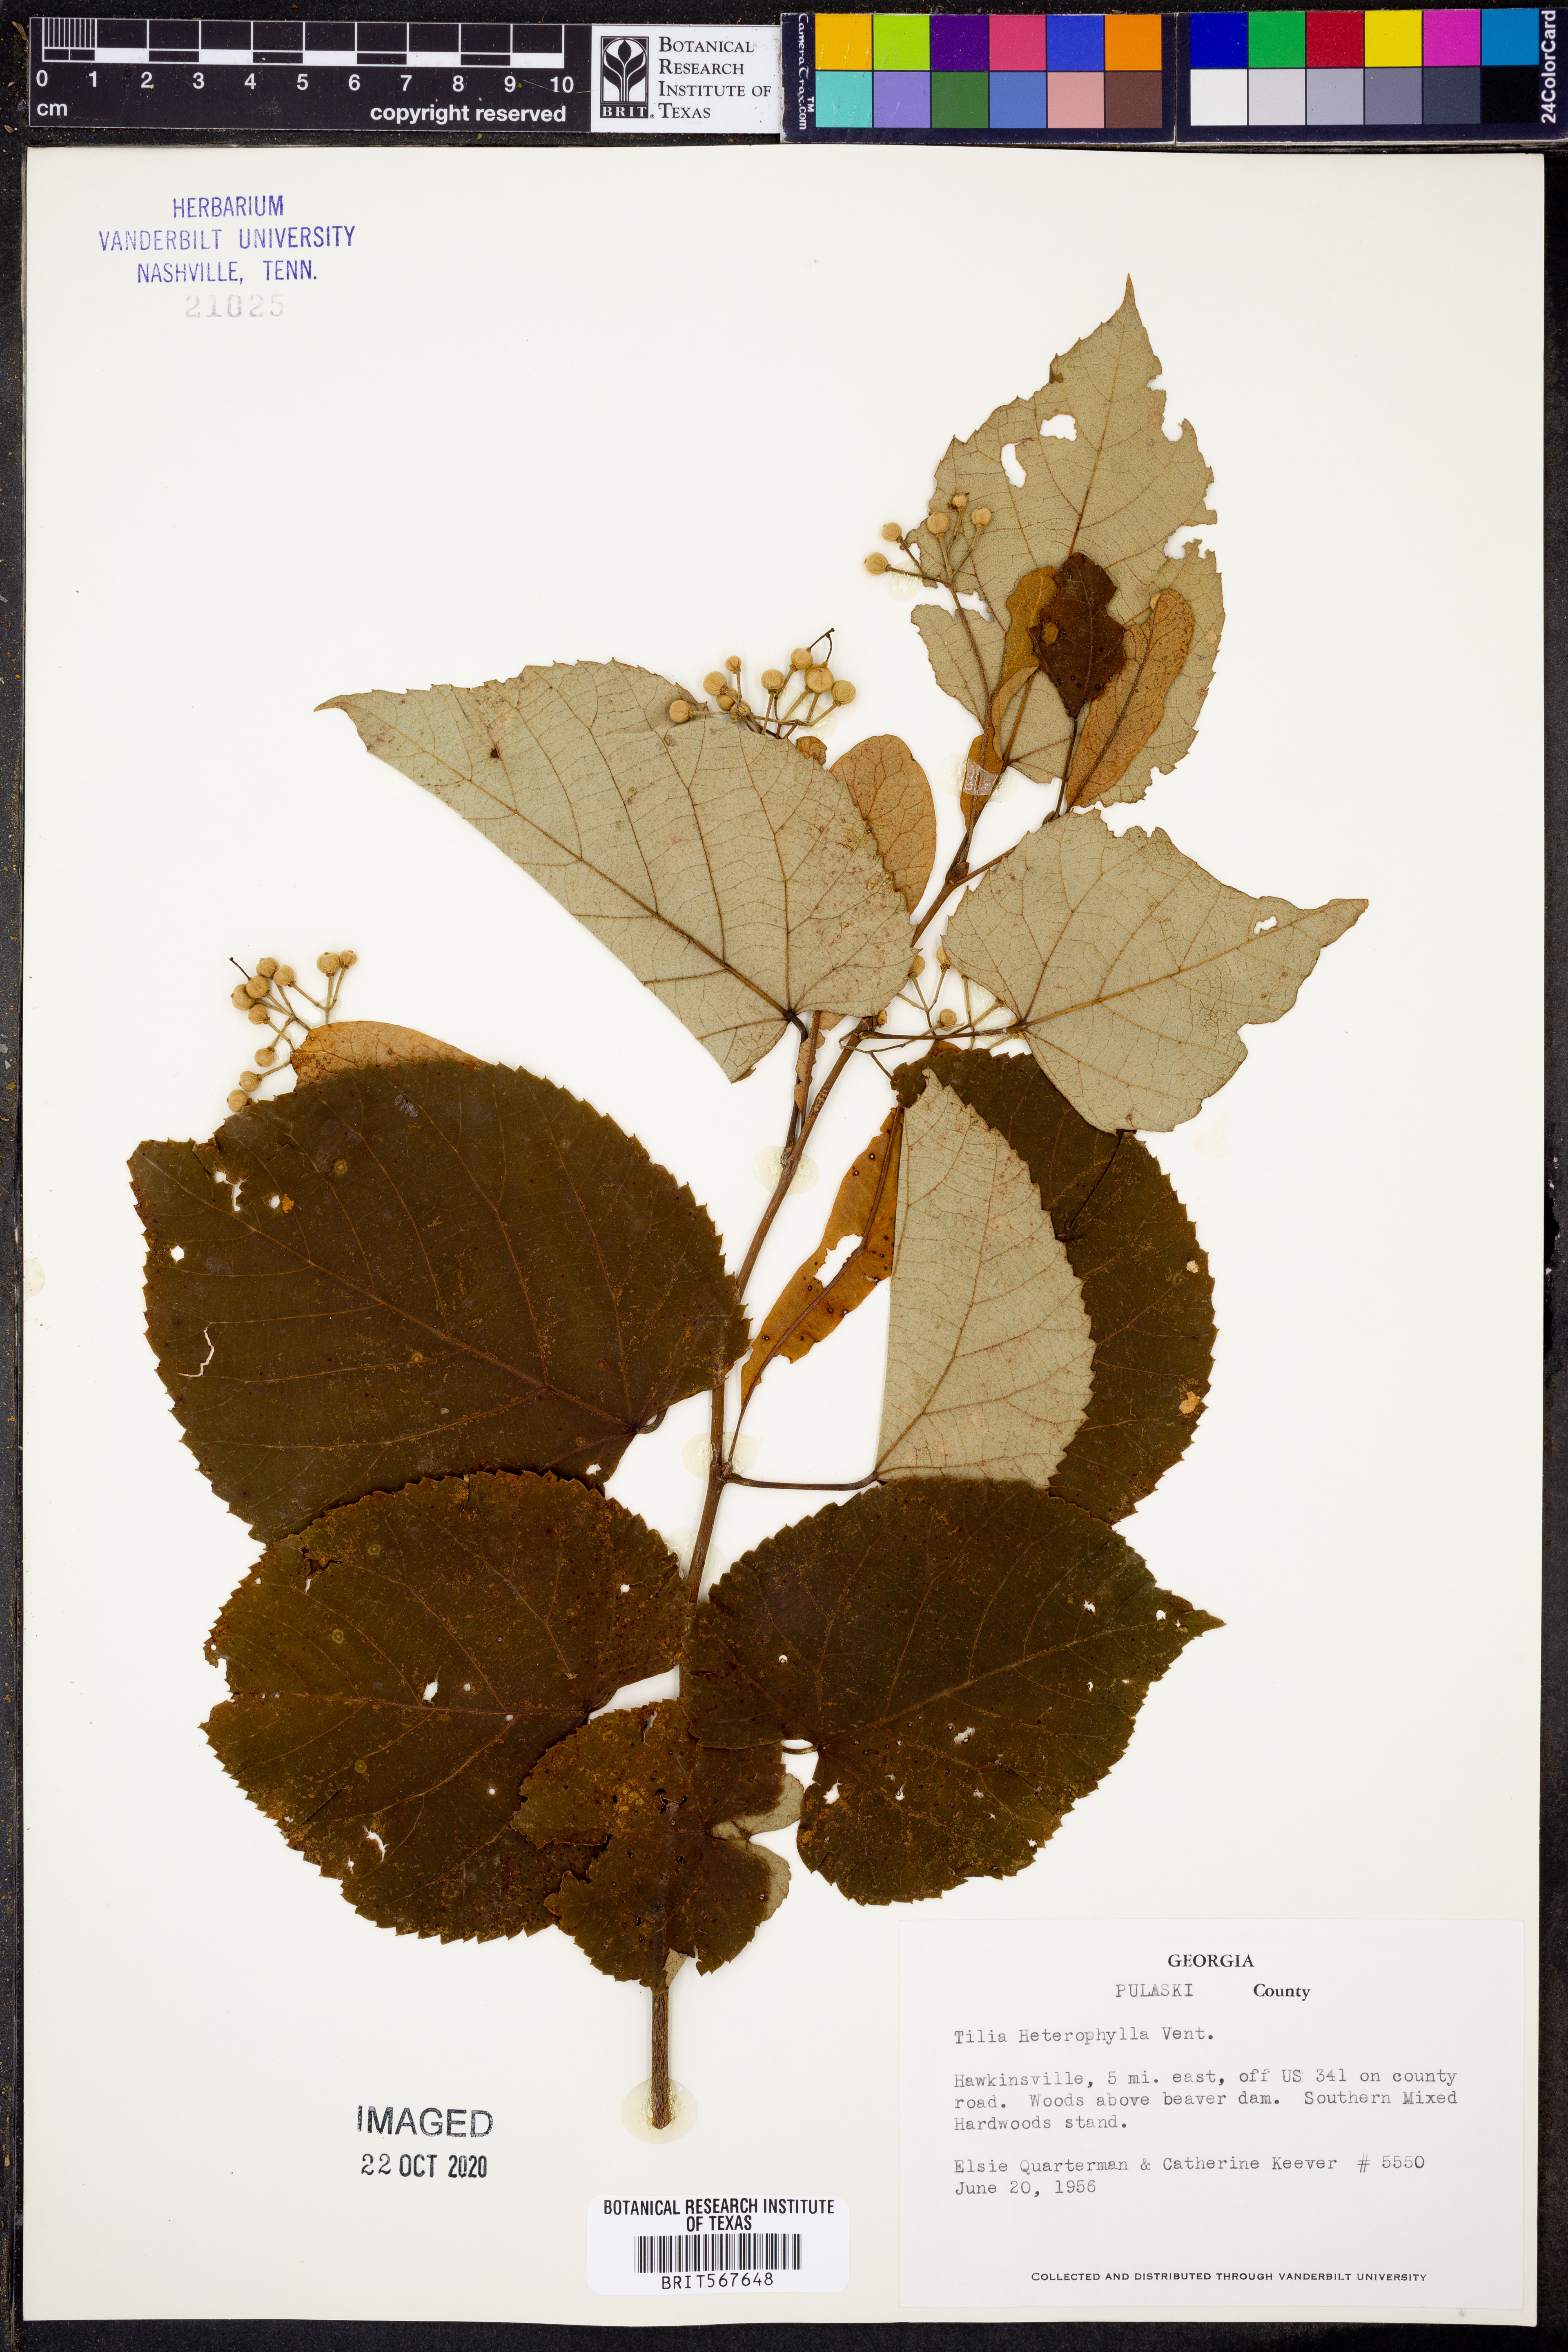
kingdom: Plantae
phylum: Tracheophyta
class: Magnoliopsida
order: Malvales
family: Malvaceae
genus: Tilia
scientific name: Tilia americana
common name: Basswood
